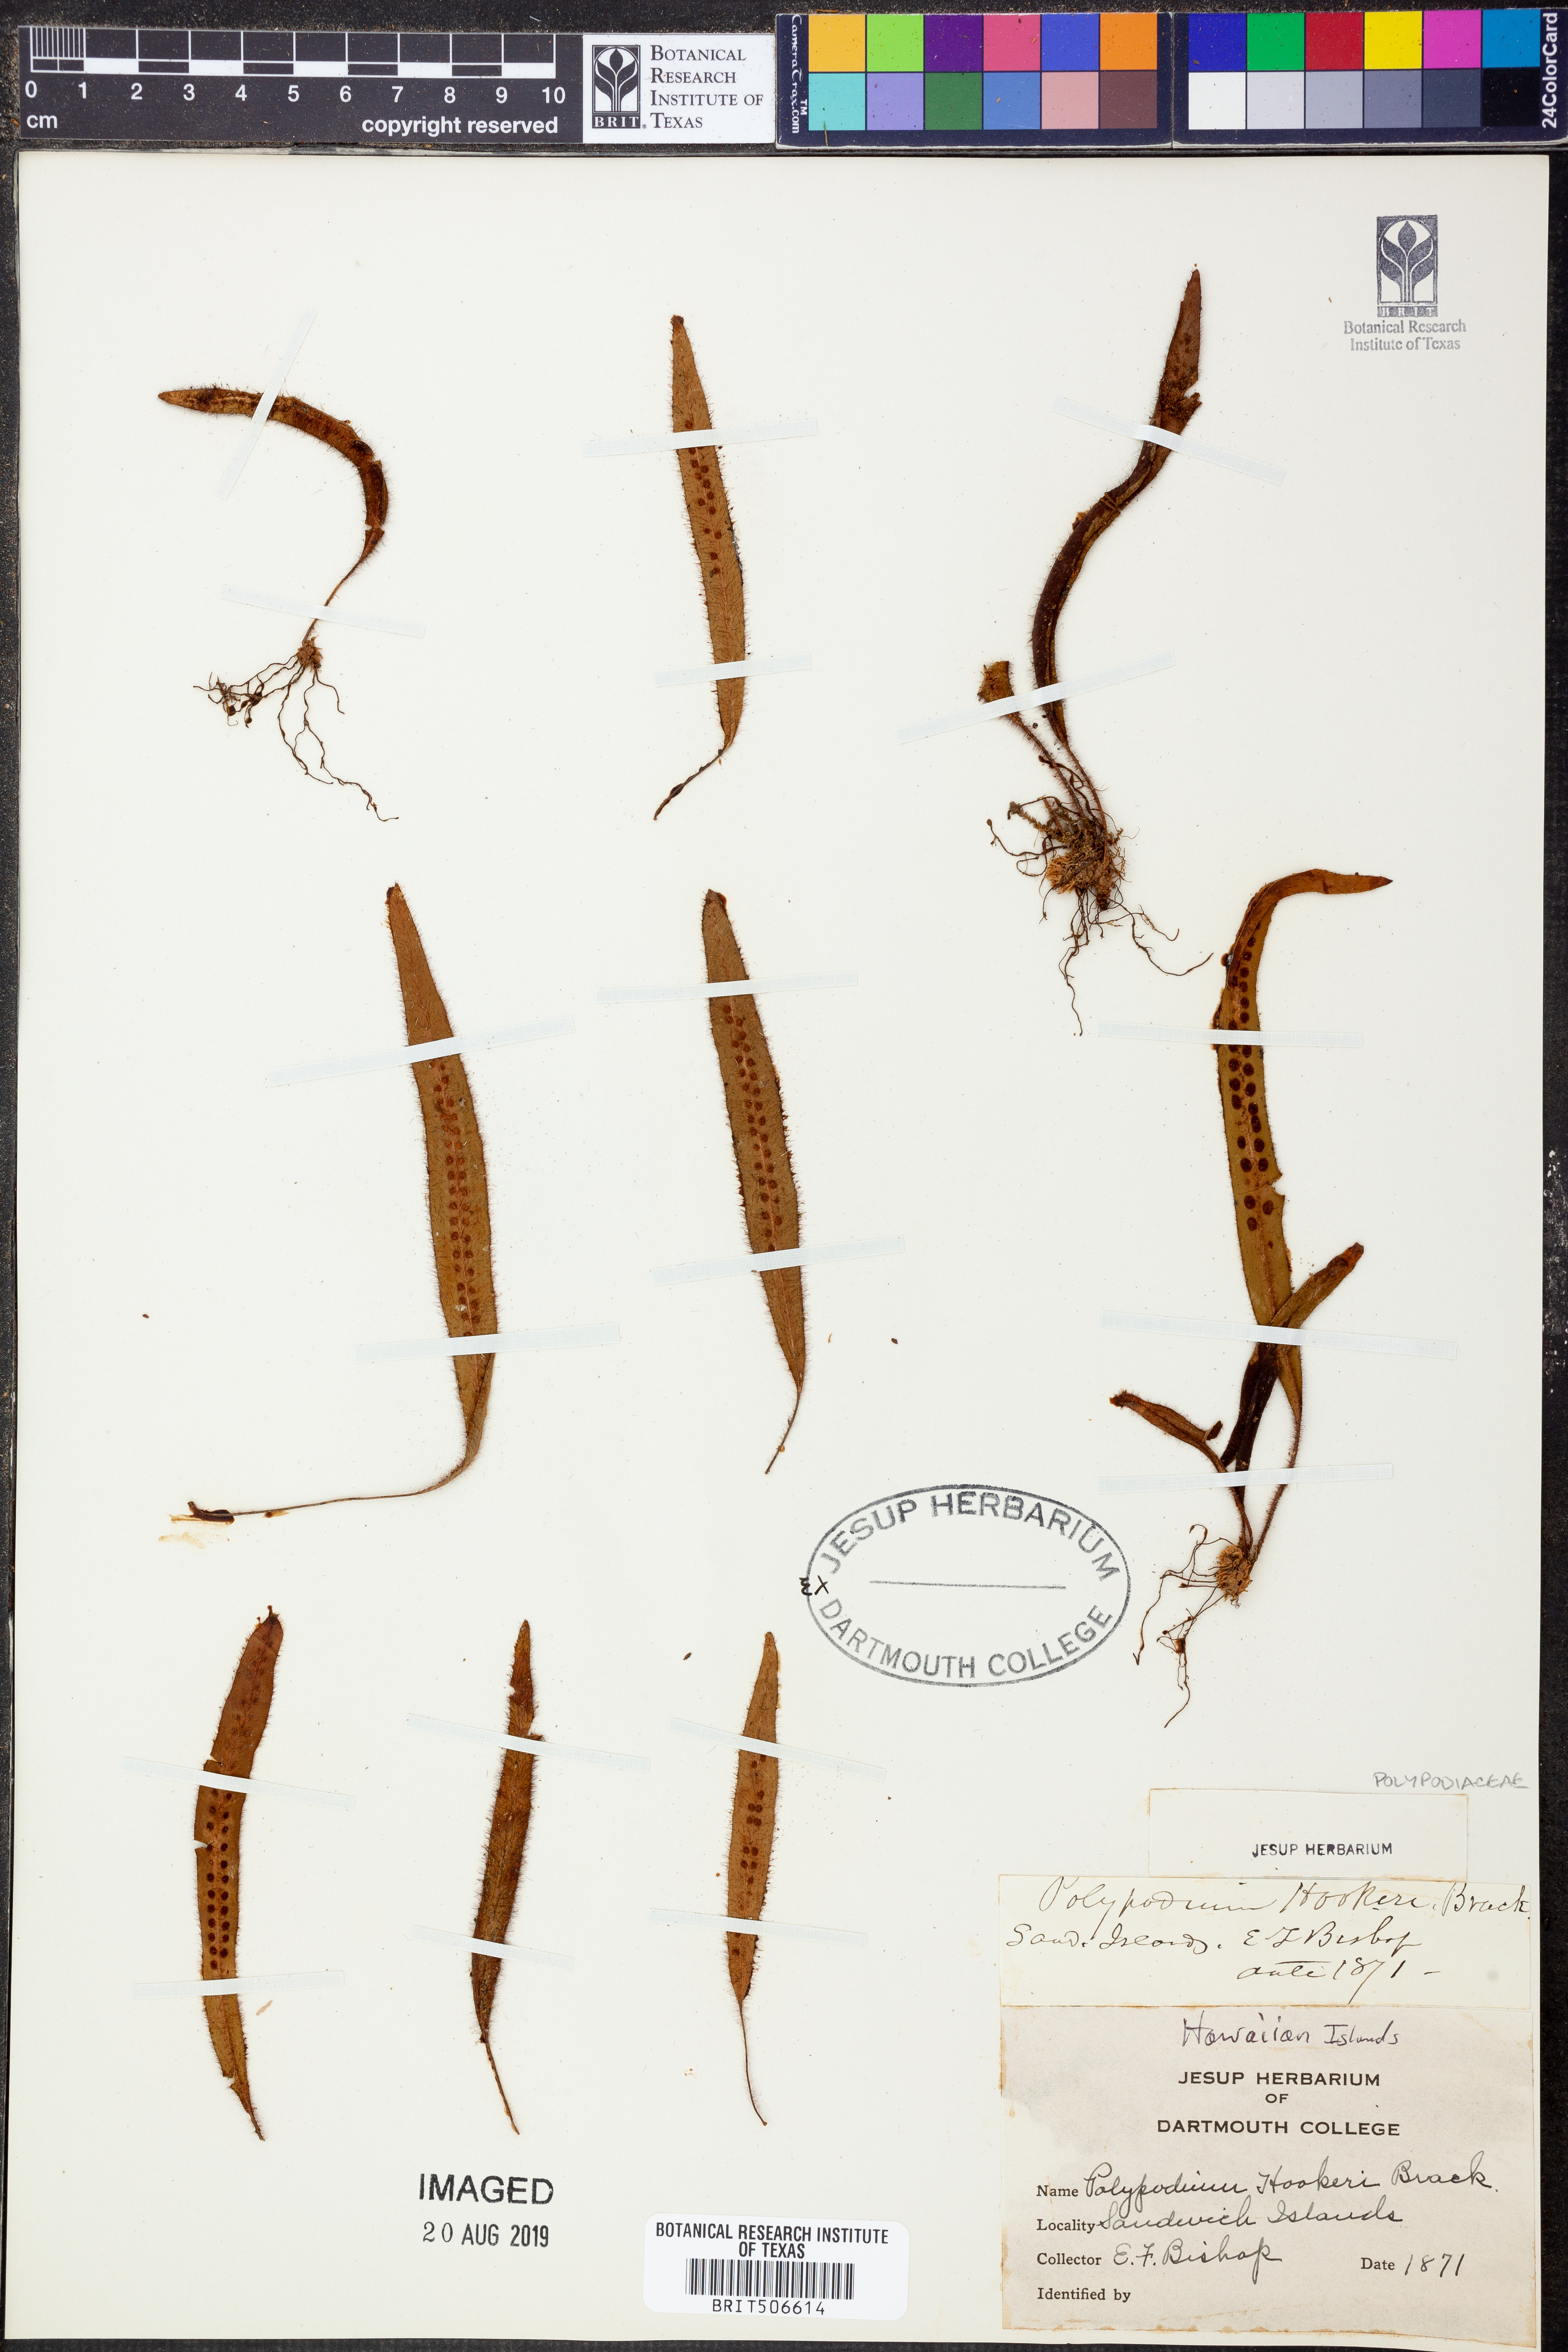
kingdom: Plantae
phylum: Tracheophyta
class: Polypodiopsida
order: Polypodiales
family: Polypodiaceae
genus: Oreogrammitis
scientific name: Oreogrammitis hookeri
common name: Hooker's dwarf polypody
